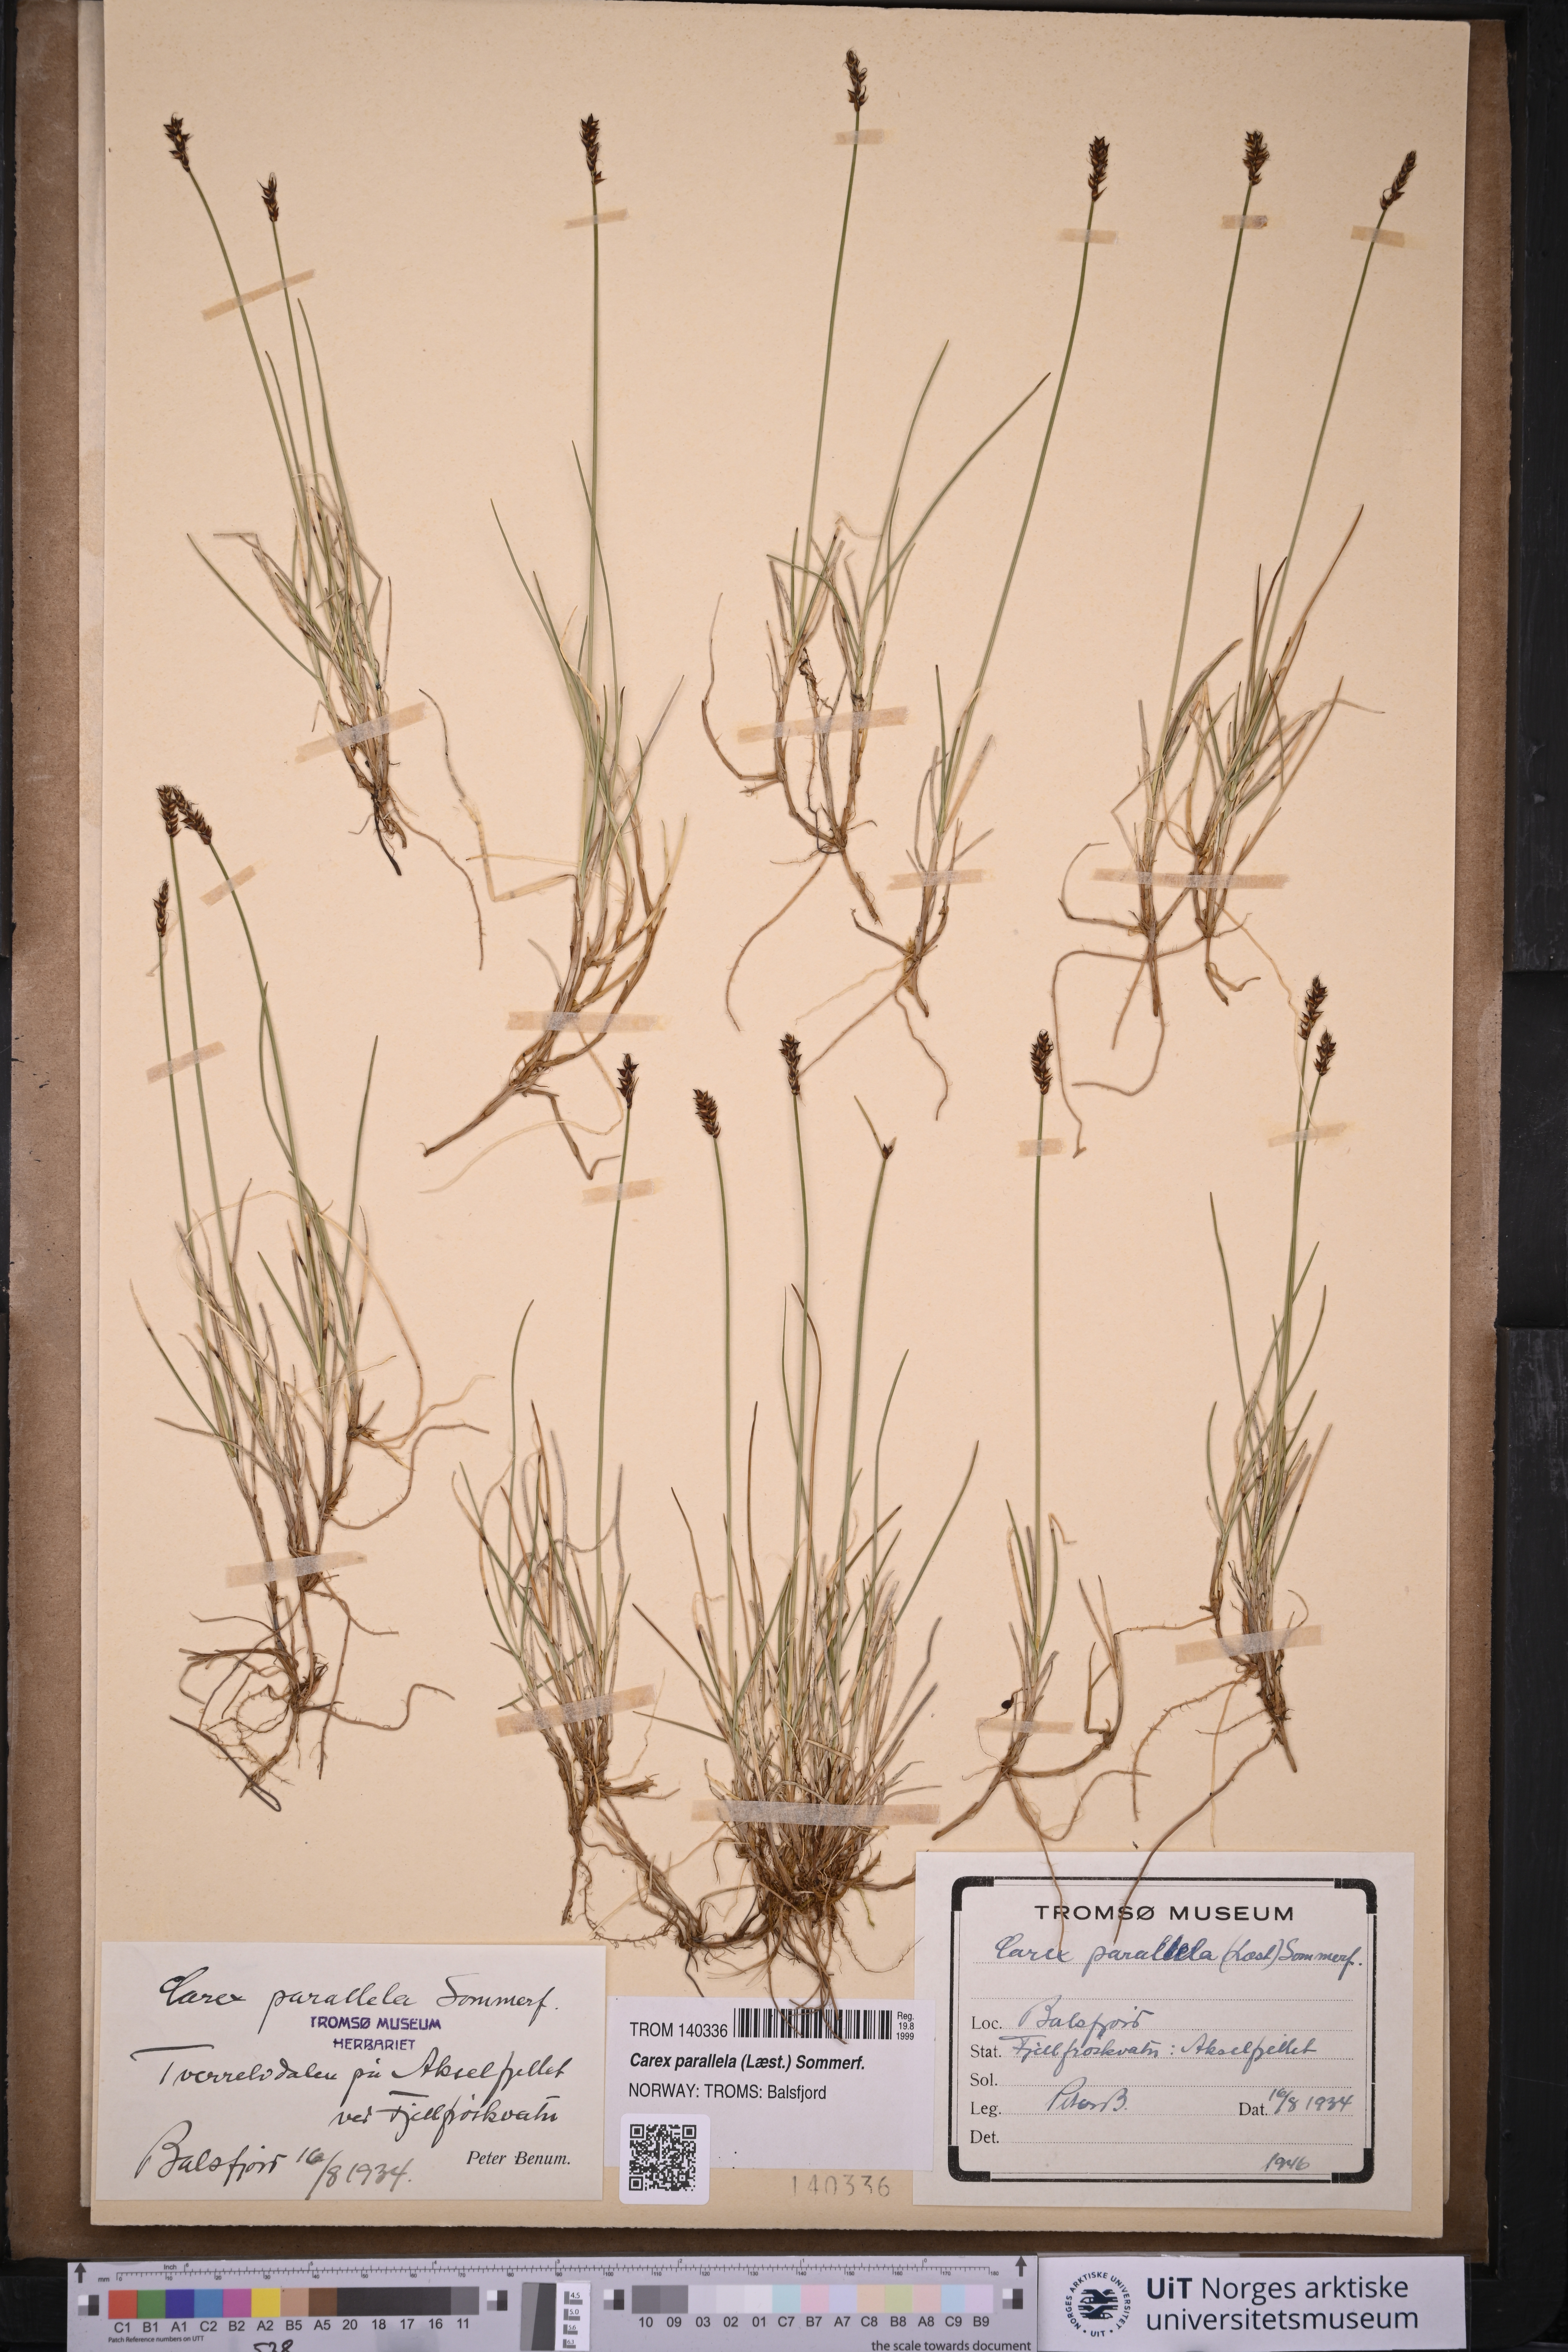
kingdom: Plantae
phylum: Tracheophyta
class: Liliopsida
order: Poales
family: Cyperaceae
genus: Carex
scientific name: Carex parallela
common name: Parallel sedge
